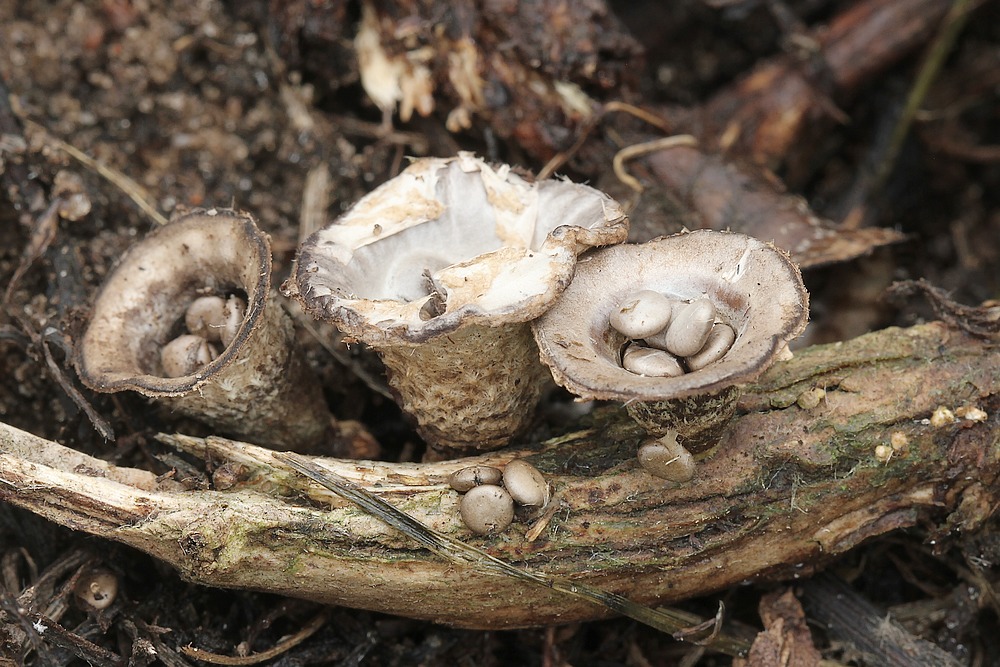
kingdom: Fungi
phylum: Basidiomycota
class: Agaricomycetes
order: Agaricales
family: Agaricaceae
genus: Cyathus
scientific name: Cyathus olla
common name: klokke-redesvamp
